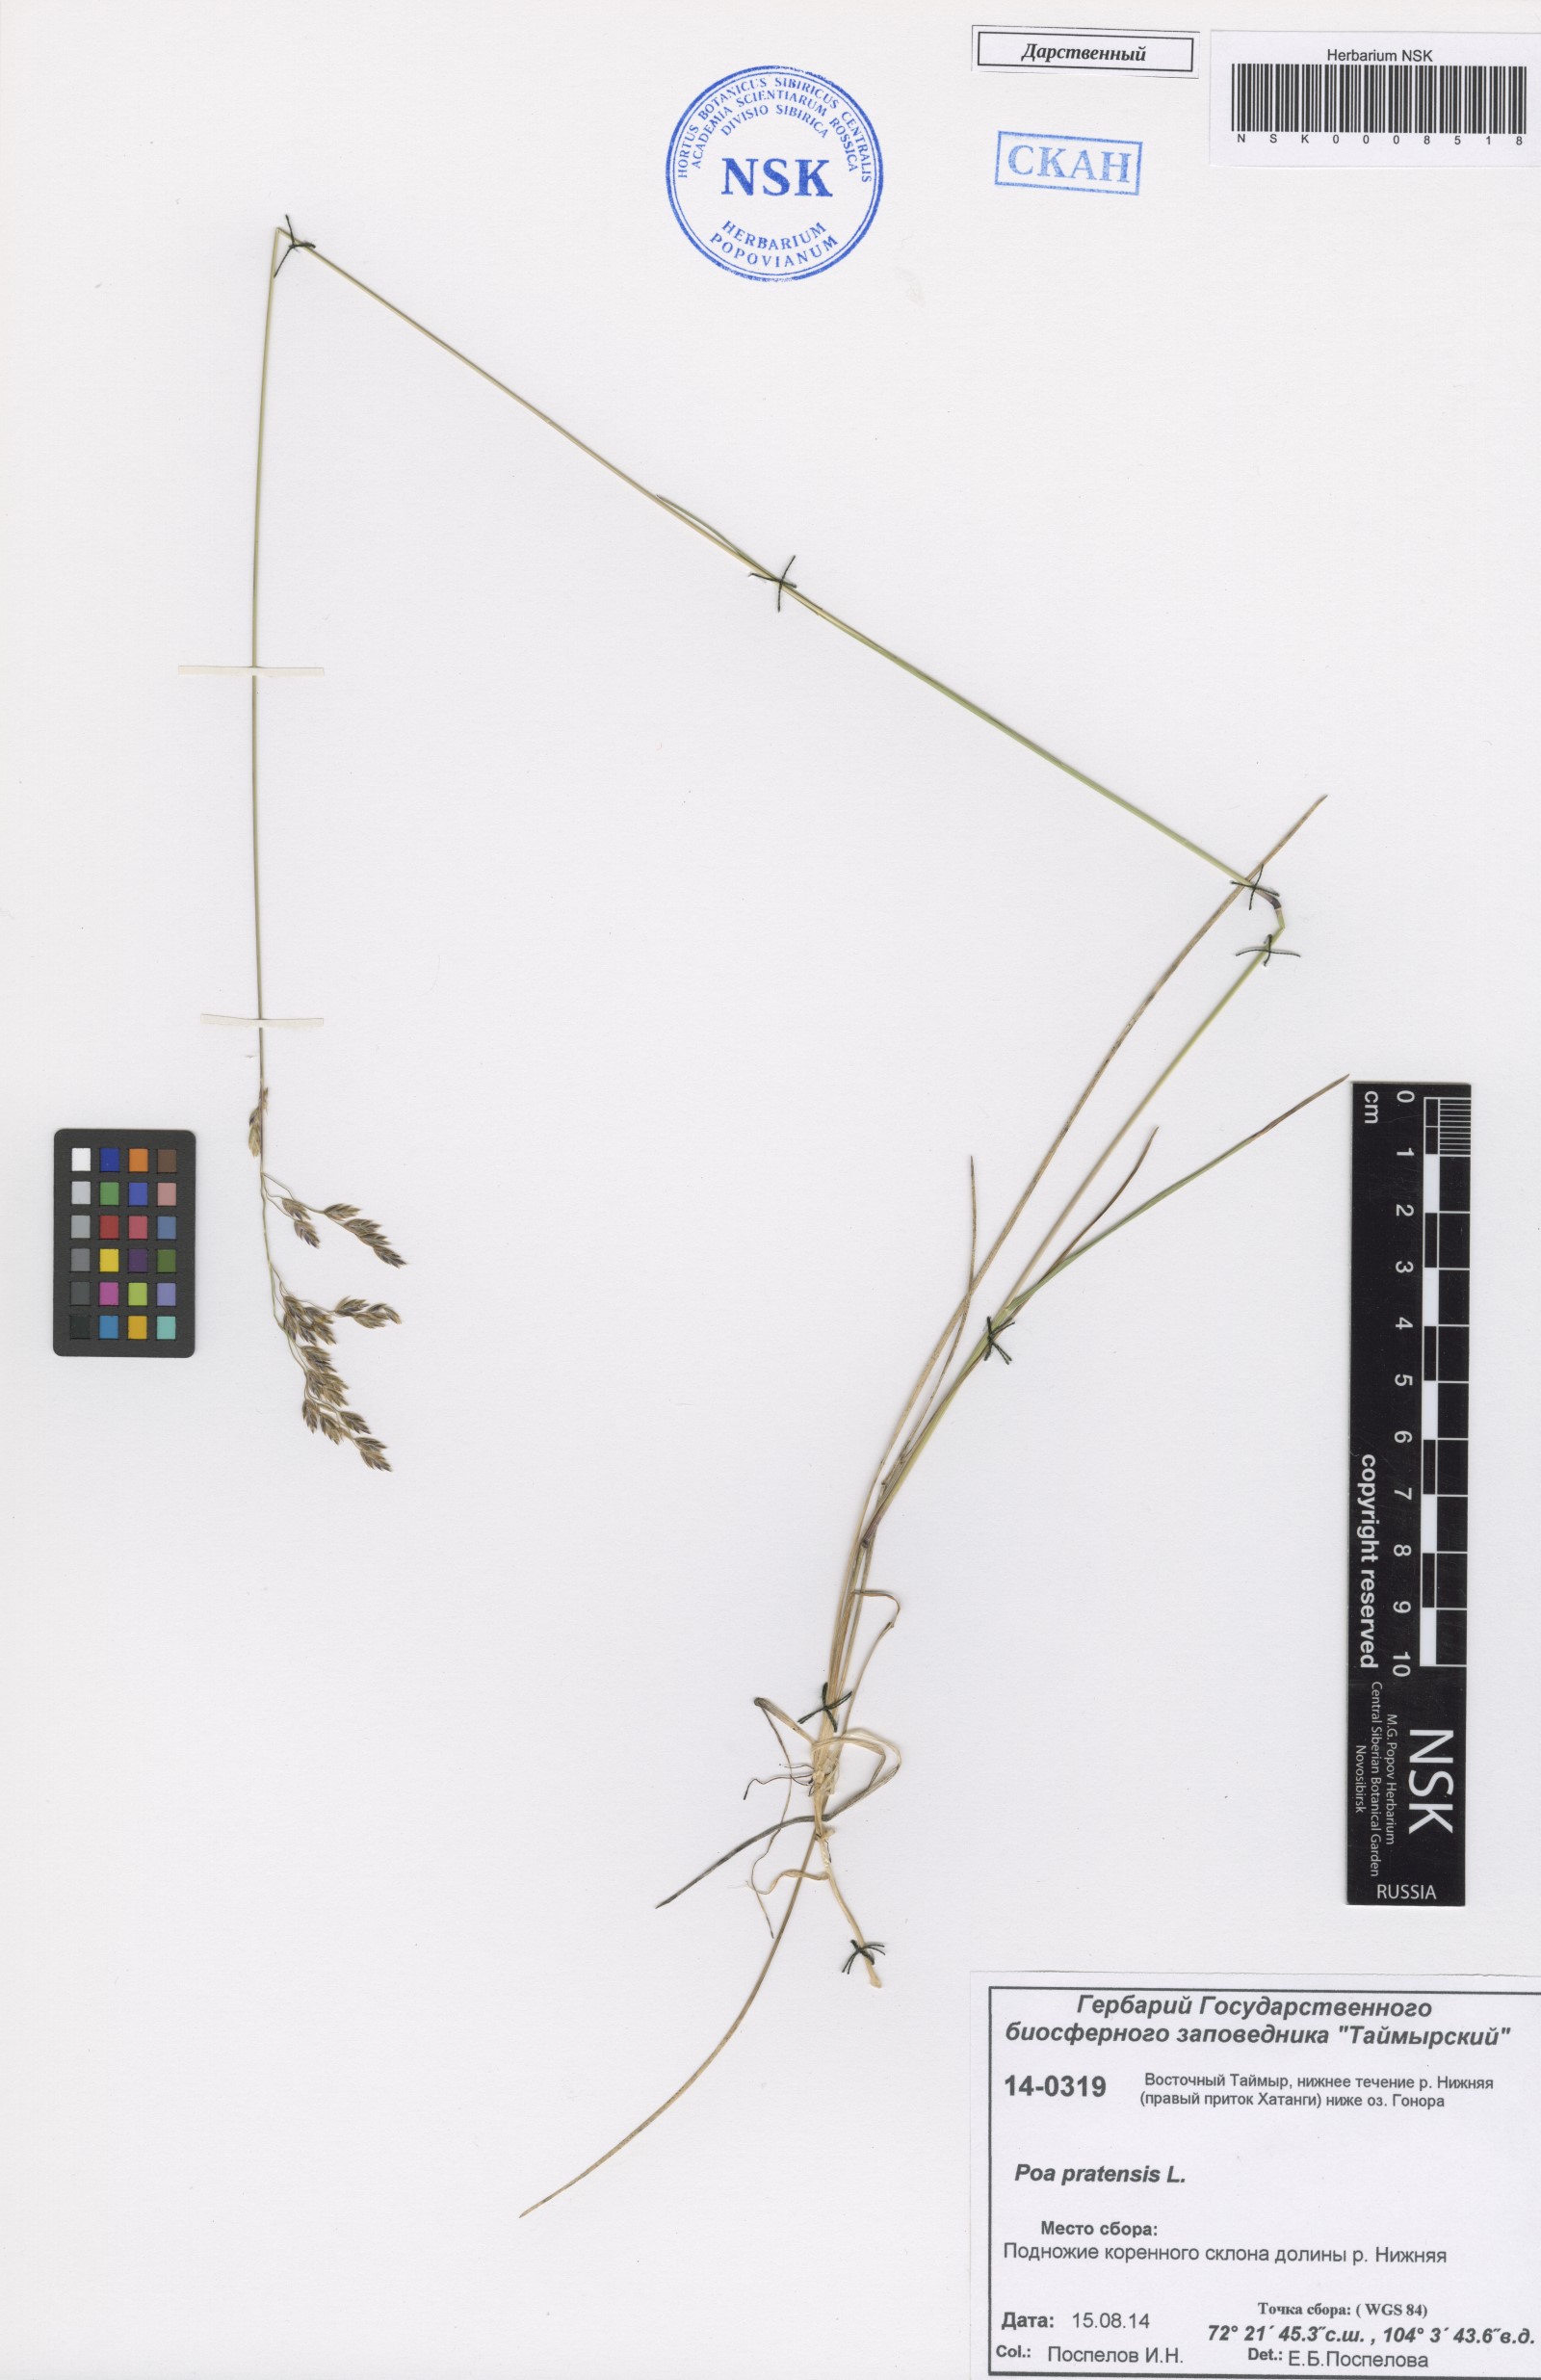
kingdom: Plantae
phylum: Tracheophyta
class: Liliopsida
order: Poales
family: Poaceae
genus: Poa
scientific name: Poa pratensis
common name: Kentucky bluegrass
